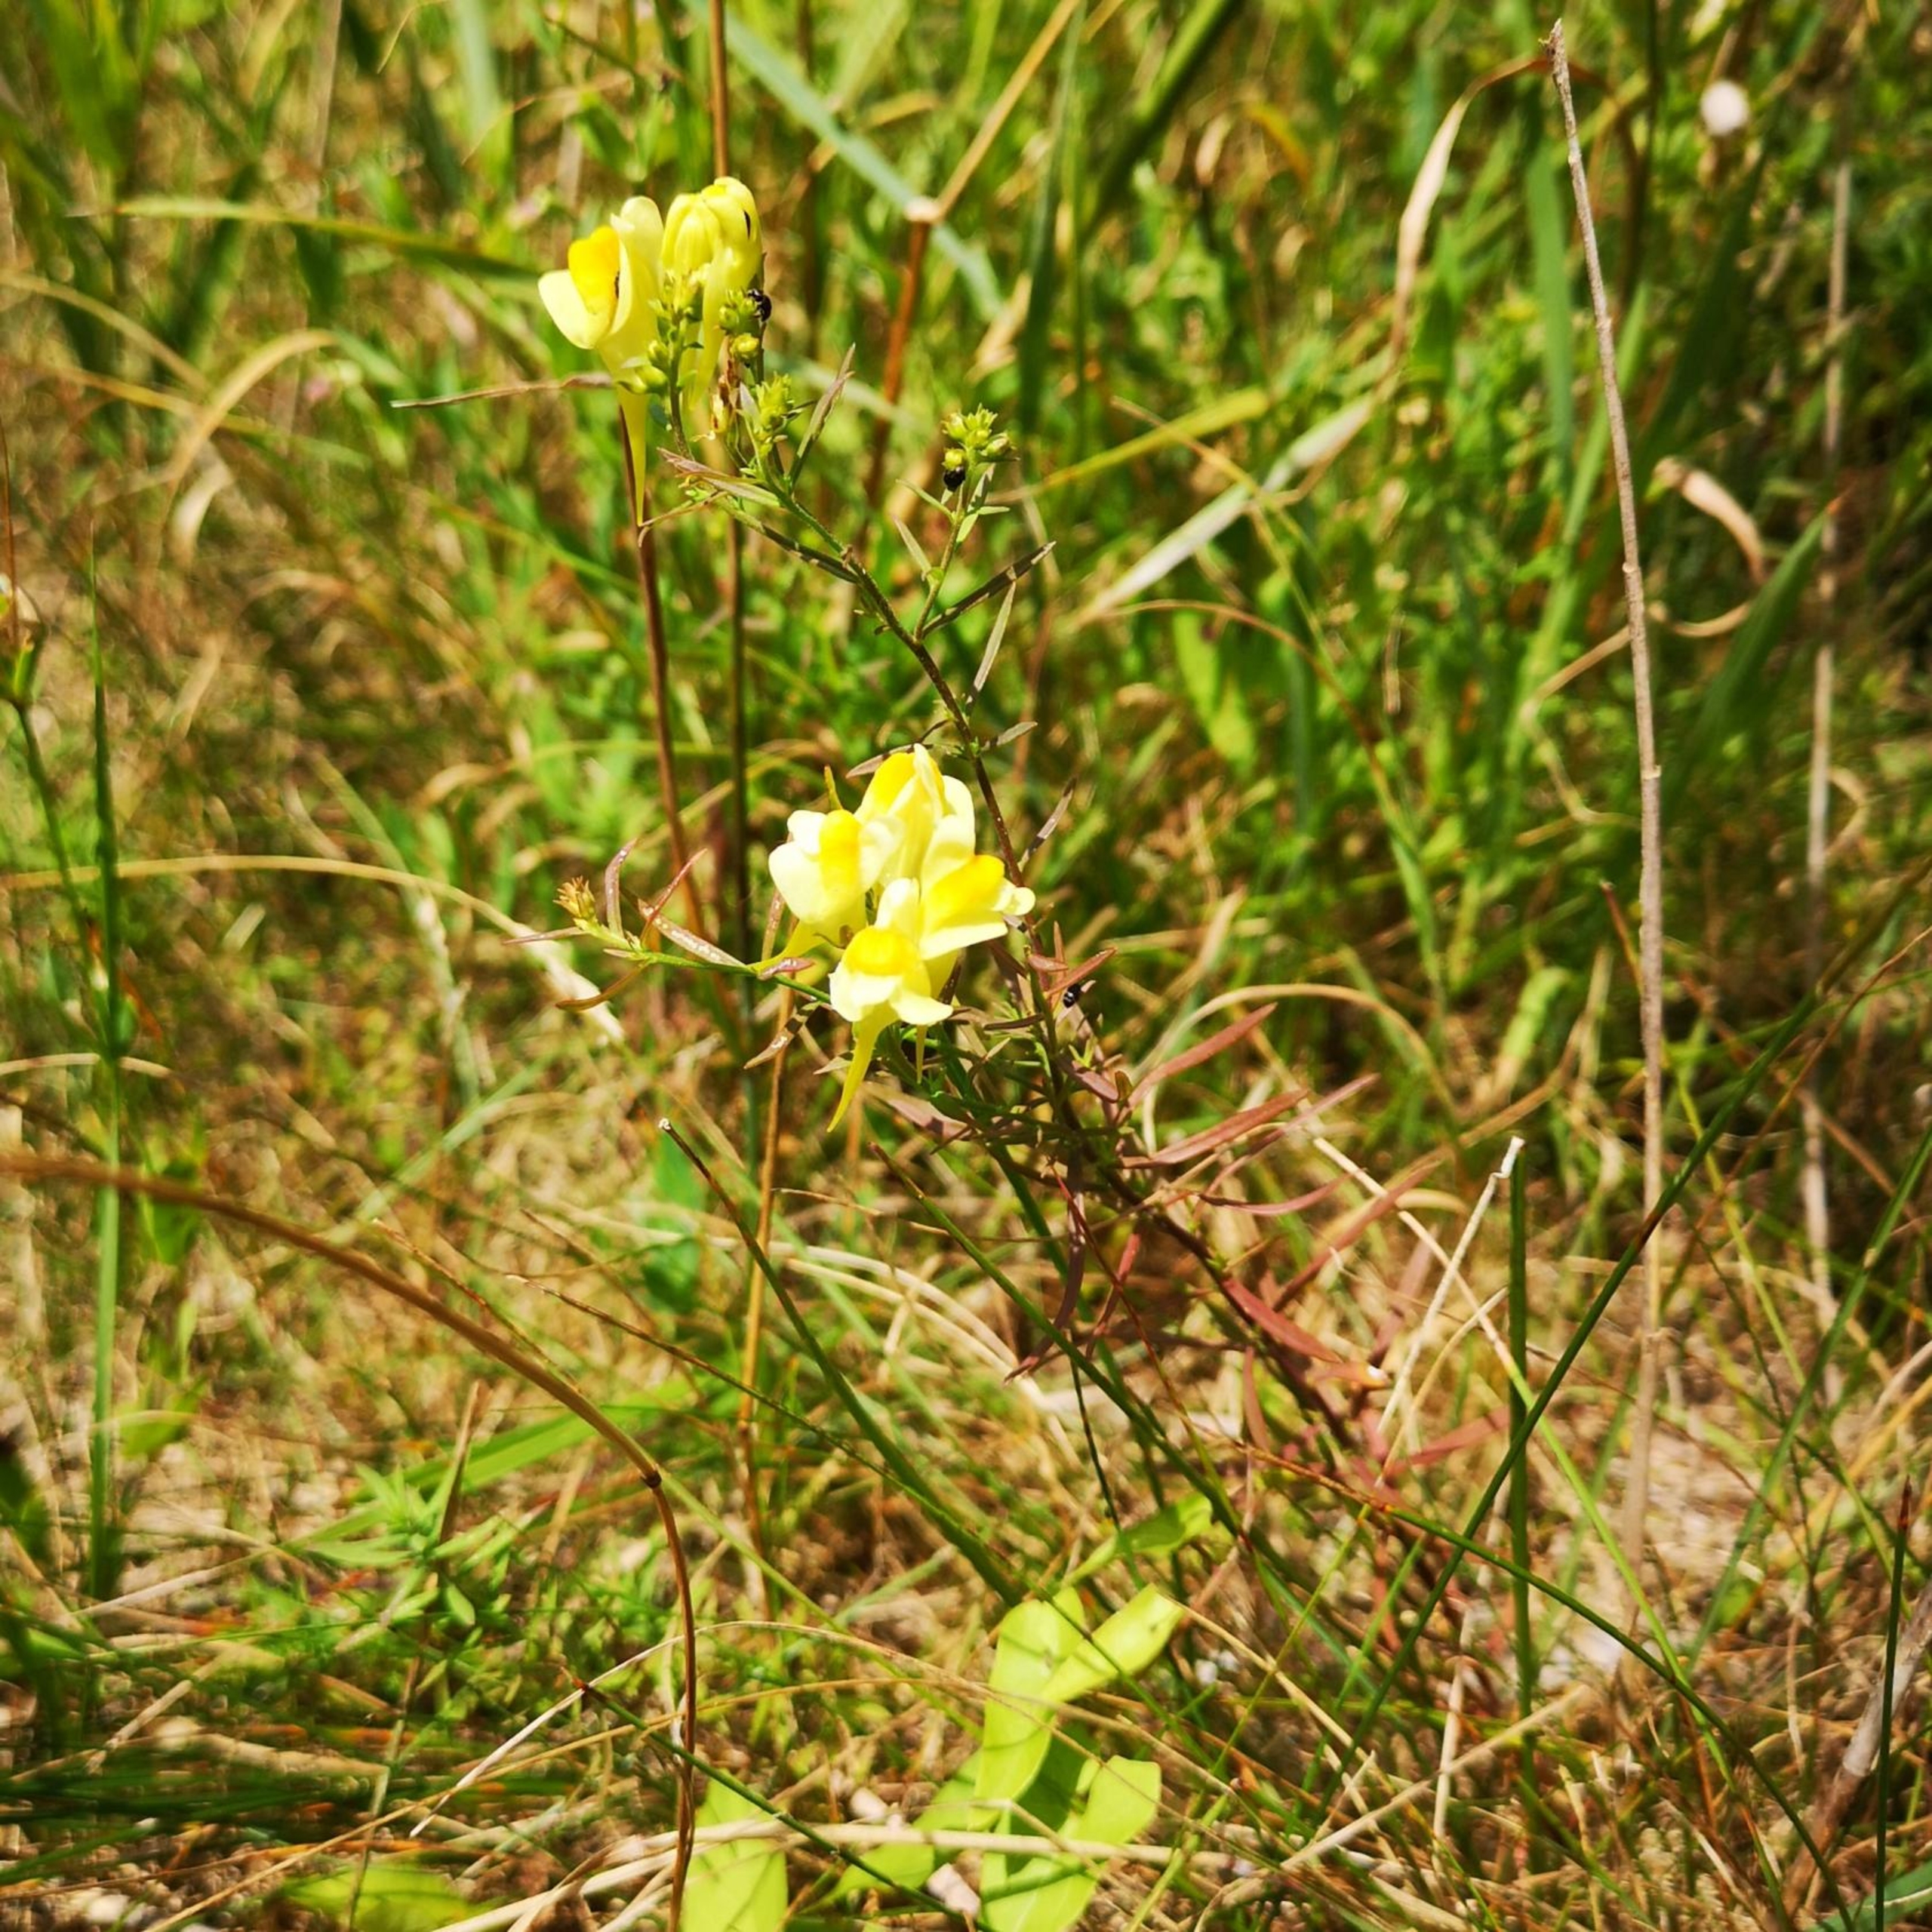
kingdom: Plantae
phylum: Tracheophyta
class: Magnoliopsida
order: Lamiales
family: Plantaginaceae
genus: Linaria
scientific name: Linaria vulgaris
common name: Almindelig torskemund
